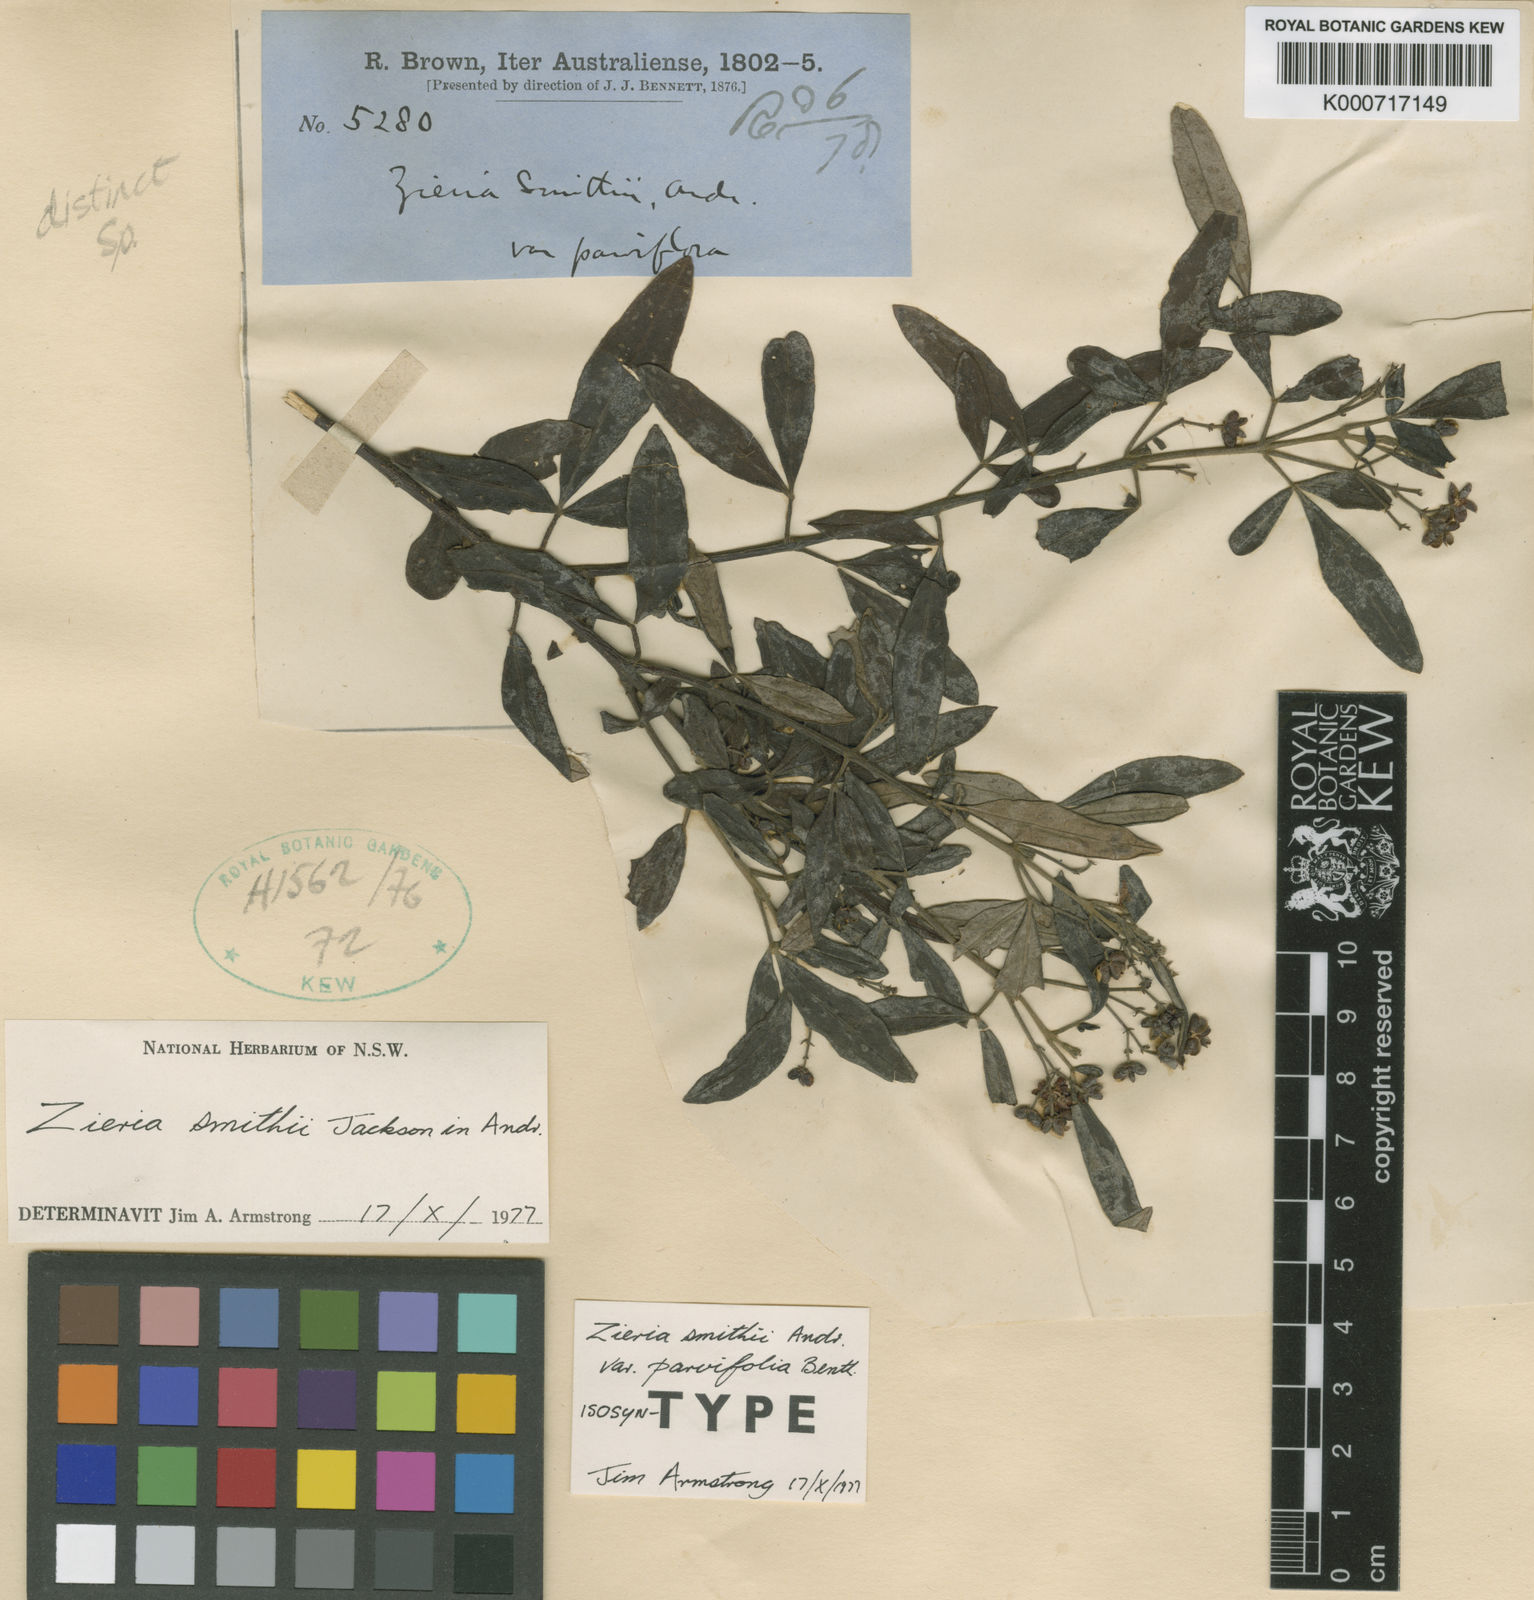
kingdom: Plantae
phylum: Tracheophyta
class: Magnoliopsida
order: Sapindales
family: Rutaceae
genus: Zieria
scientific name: Zieria smithii
